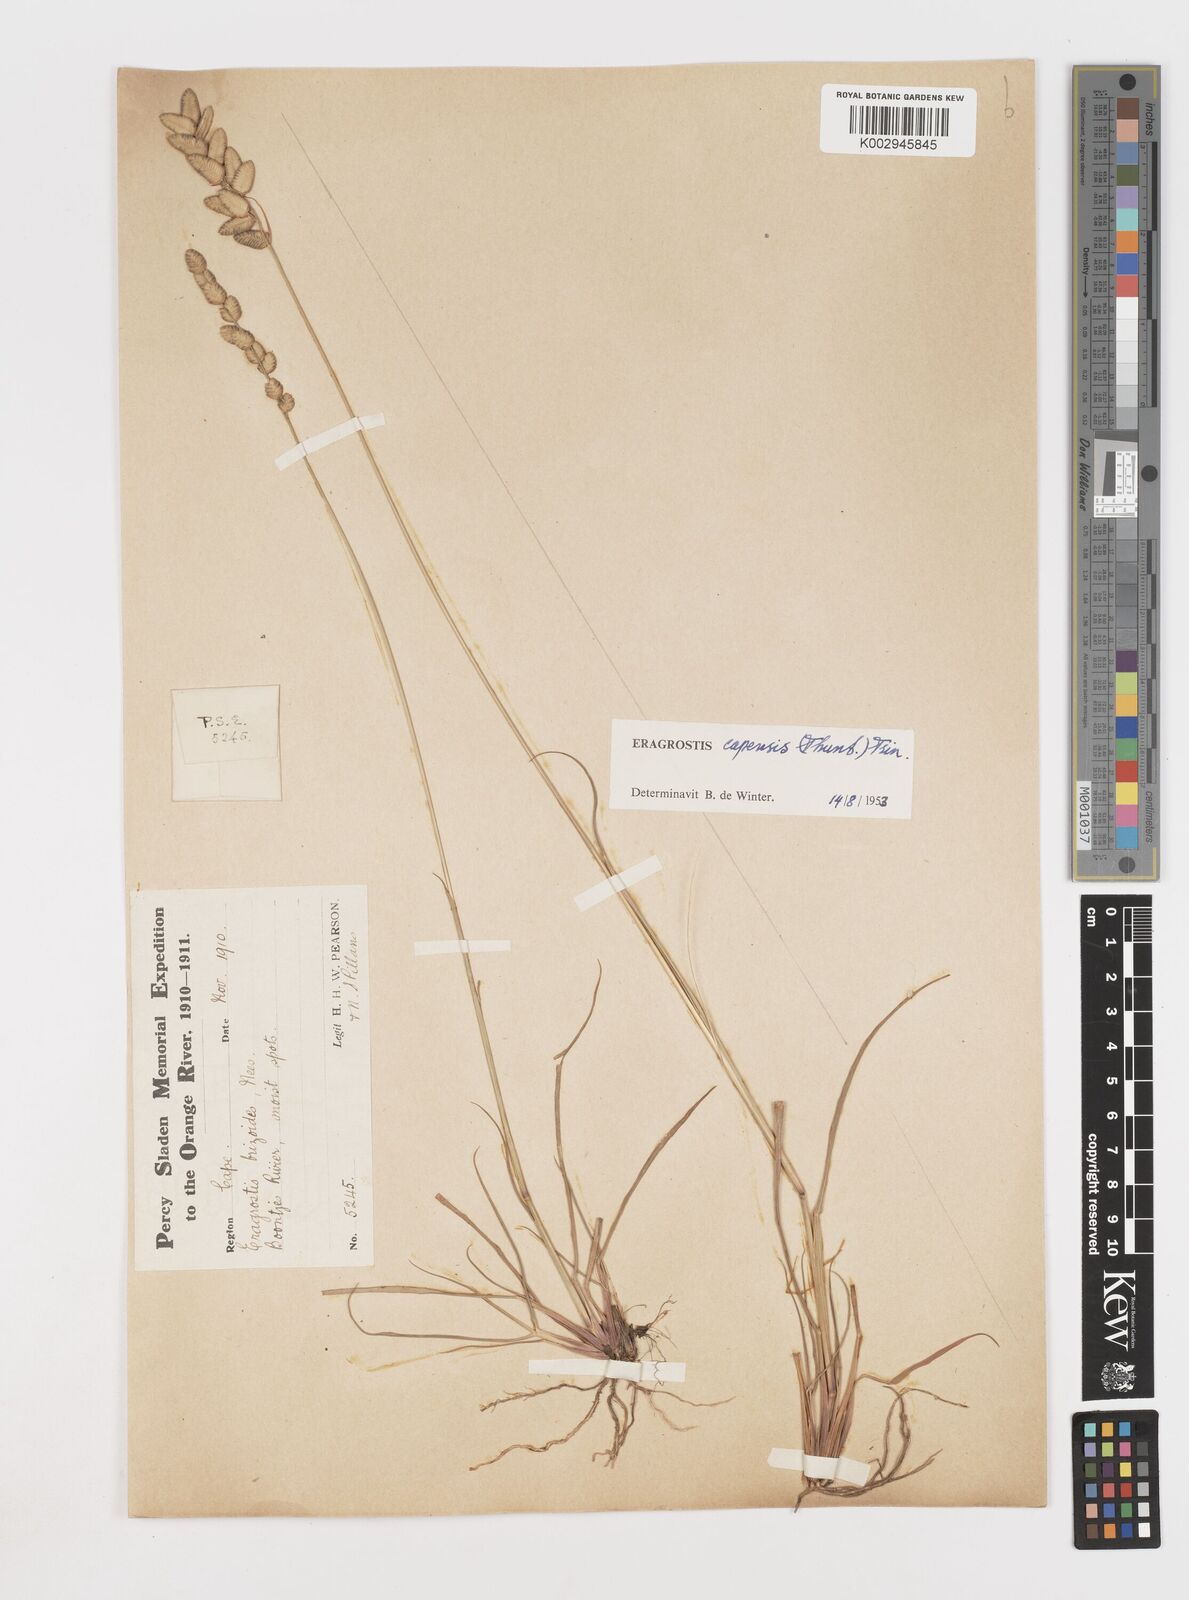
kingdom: Plantae
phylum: Tracheophyta
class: Liliopsida
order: Poales
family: Poaceae
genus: Eragrostis
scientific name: Eragrostis capensis
